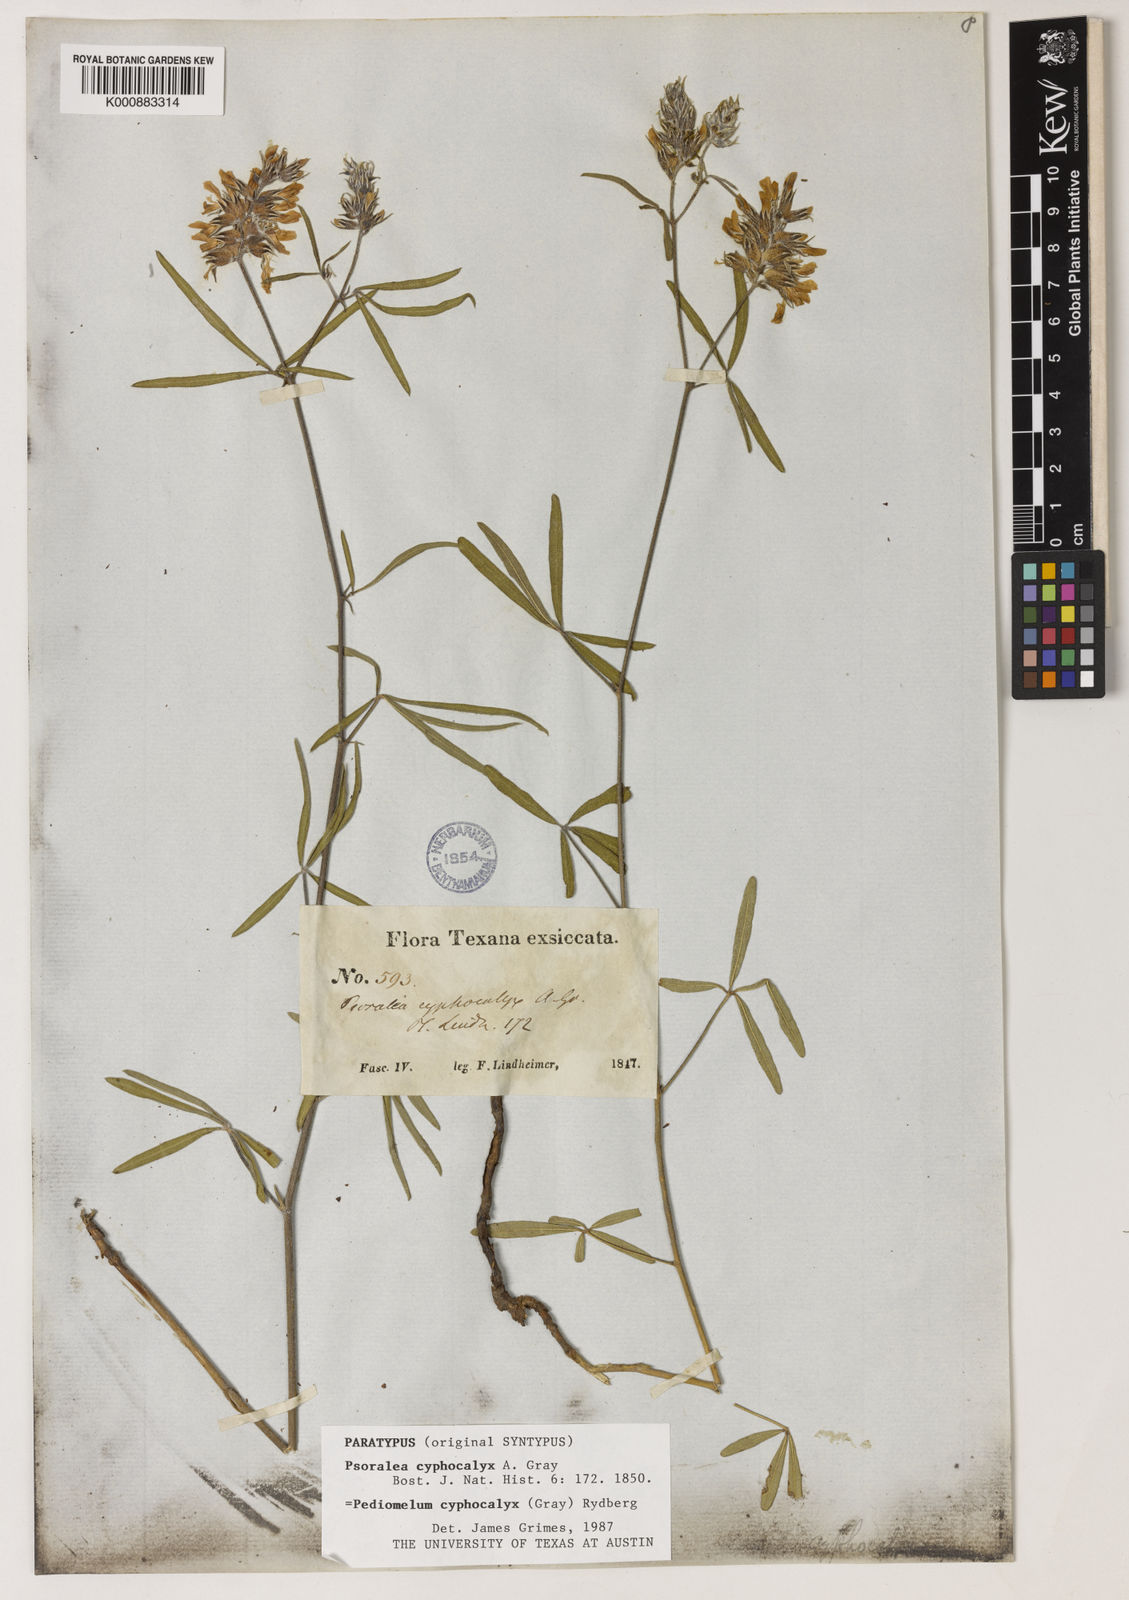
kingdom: Plantae
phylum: Tracheophyta
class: Magnoliopsida
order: Fabales
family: Fabaceae
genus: Pediomelum
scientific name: Pediomelum cyphocalyx
